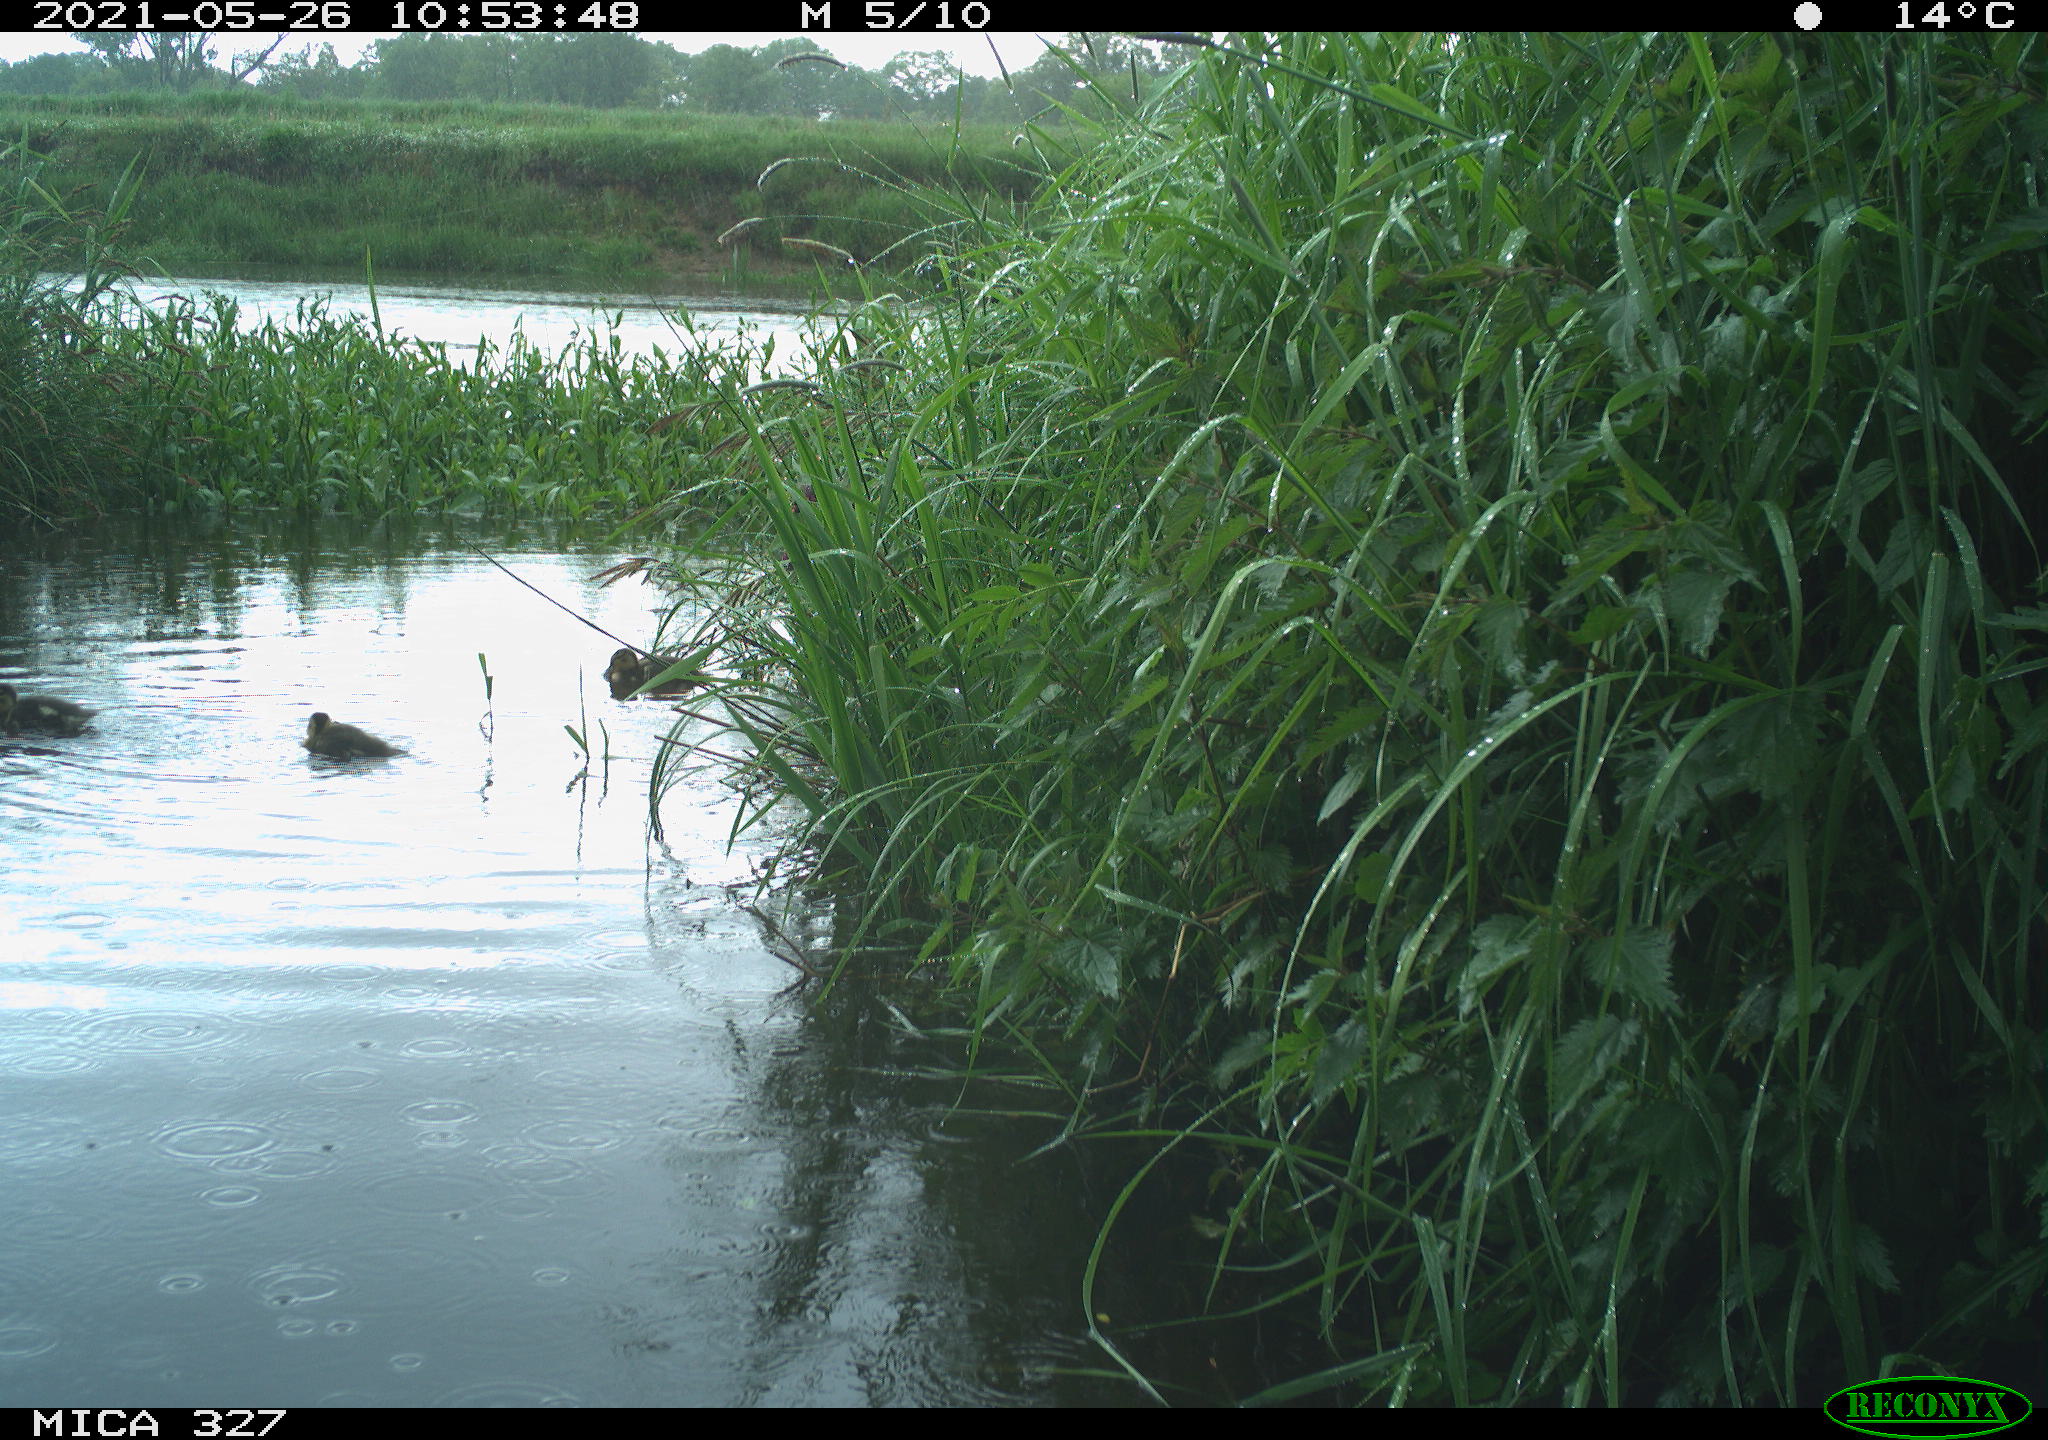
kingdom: Animalia
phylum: Chordata
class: Aves
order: Anseriformes
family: Anatidae
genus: Anas
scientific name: Anas platyrhynchos
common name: Mallard
